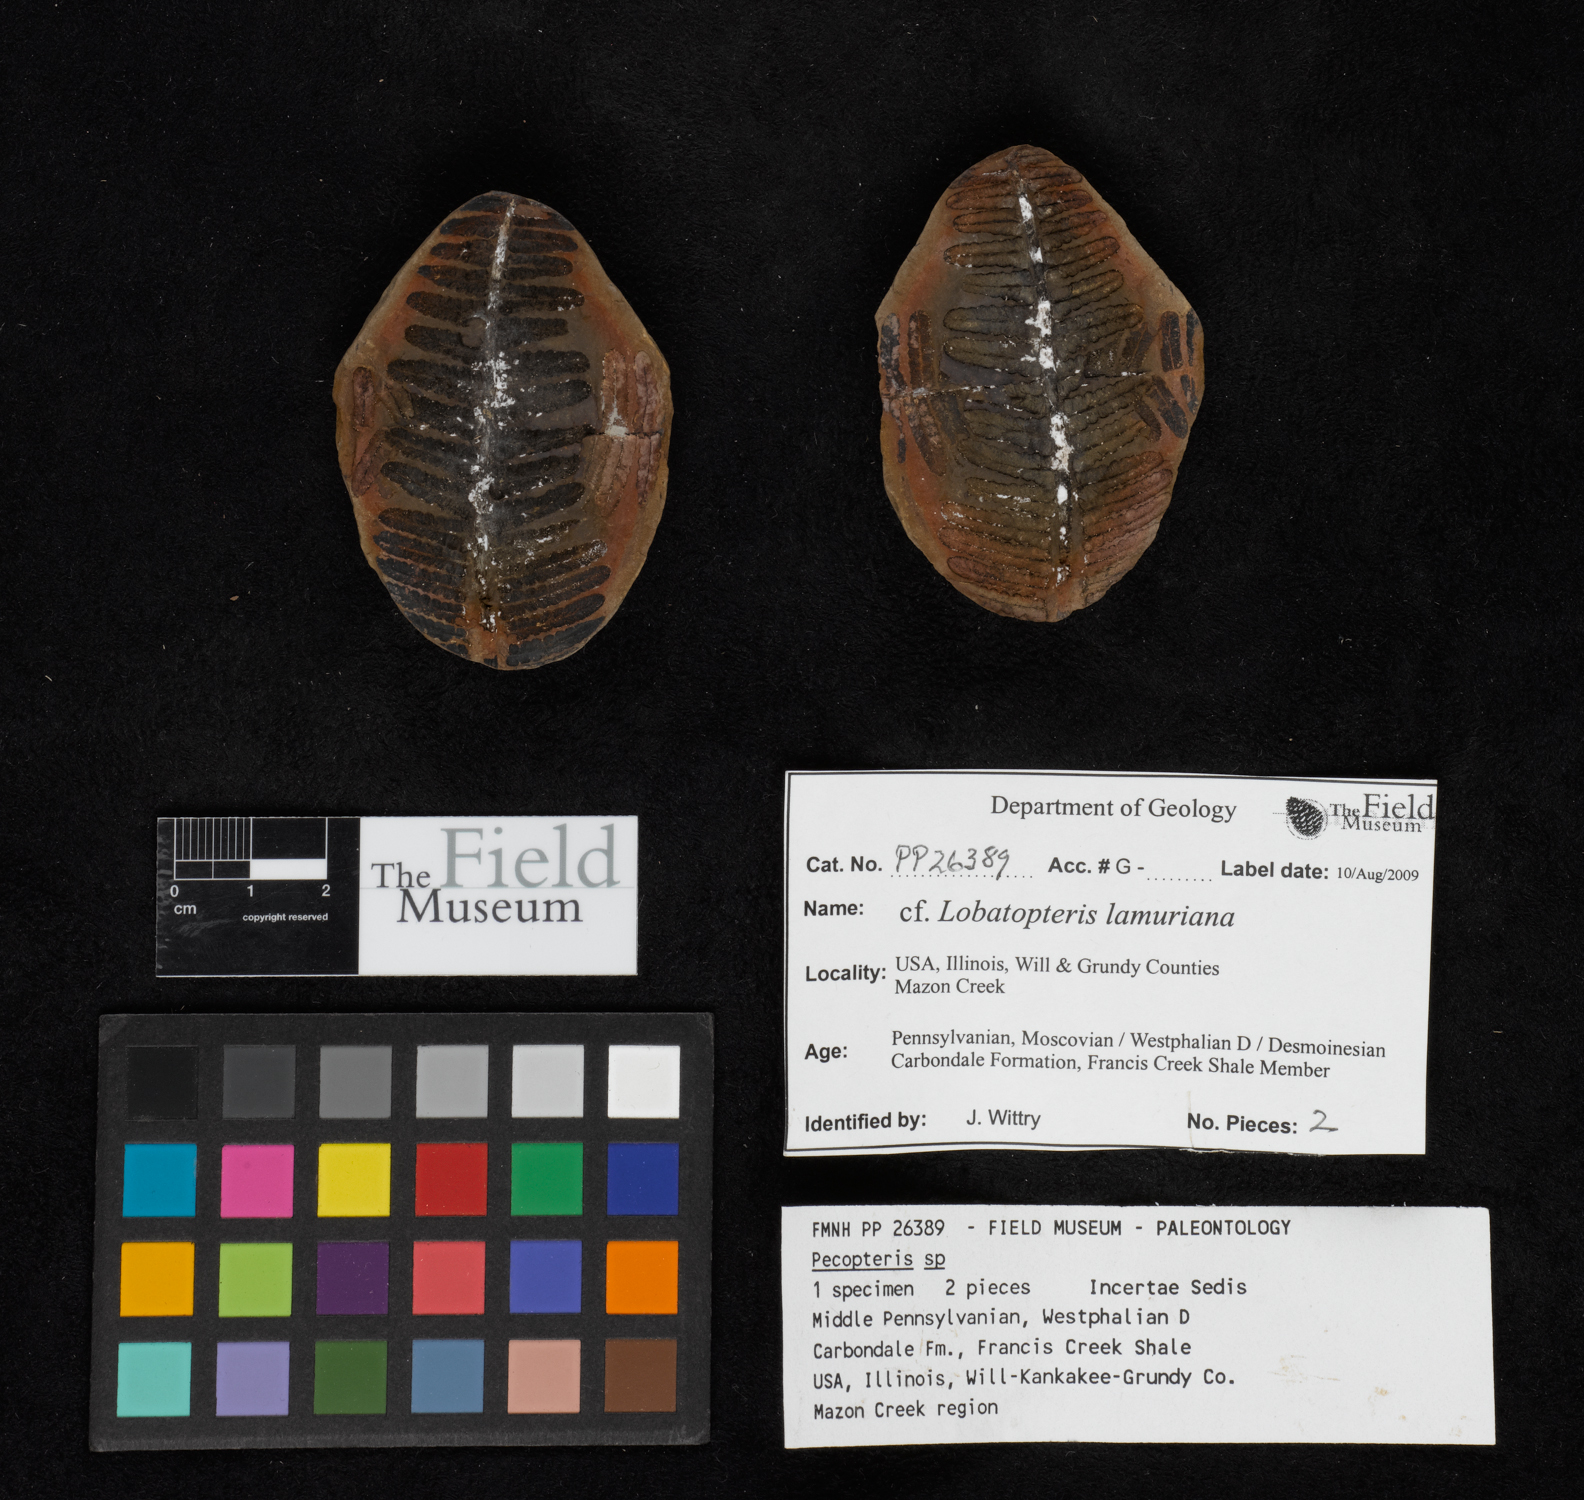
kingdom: Plantae
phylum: Tracheophyta
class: Polypodiopsida
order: Marattiales
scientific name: Marattiales
